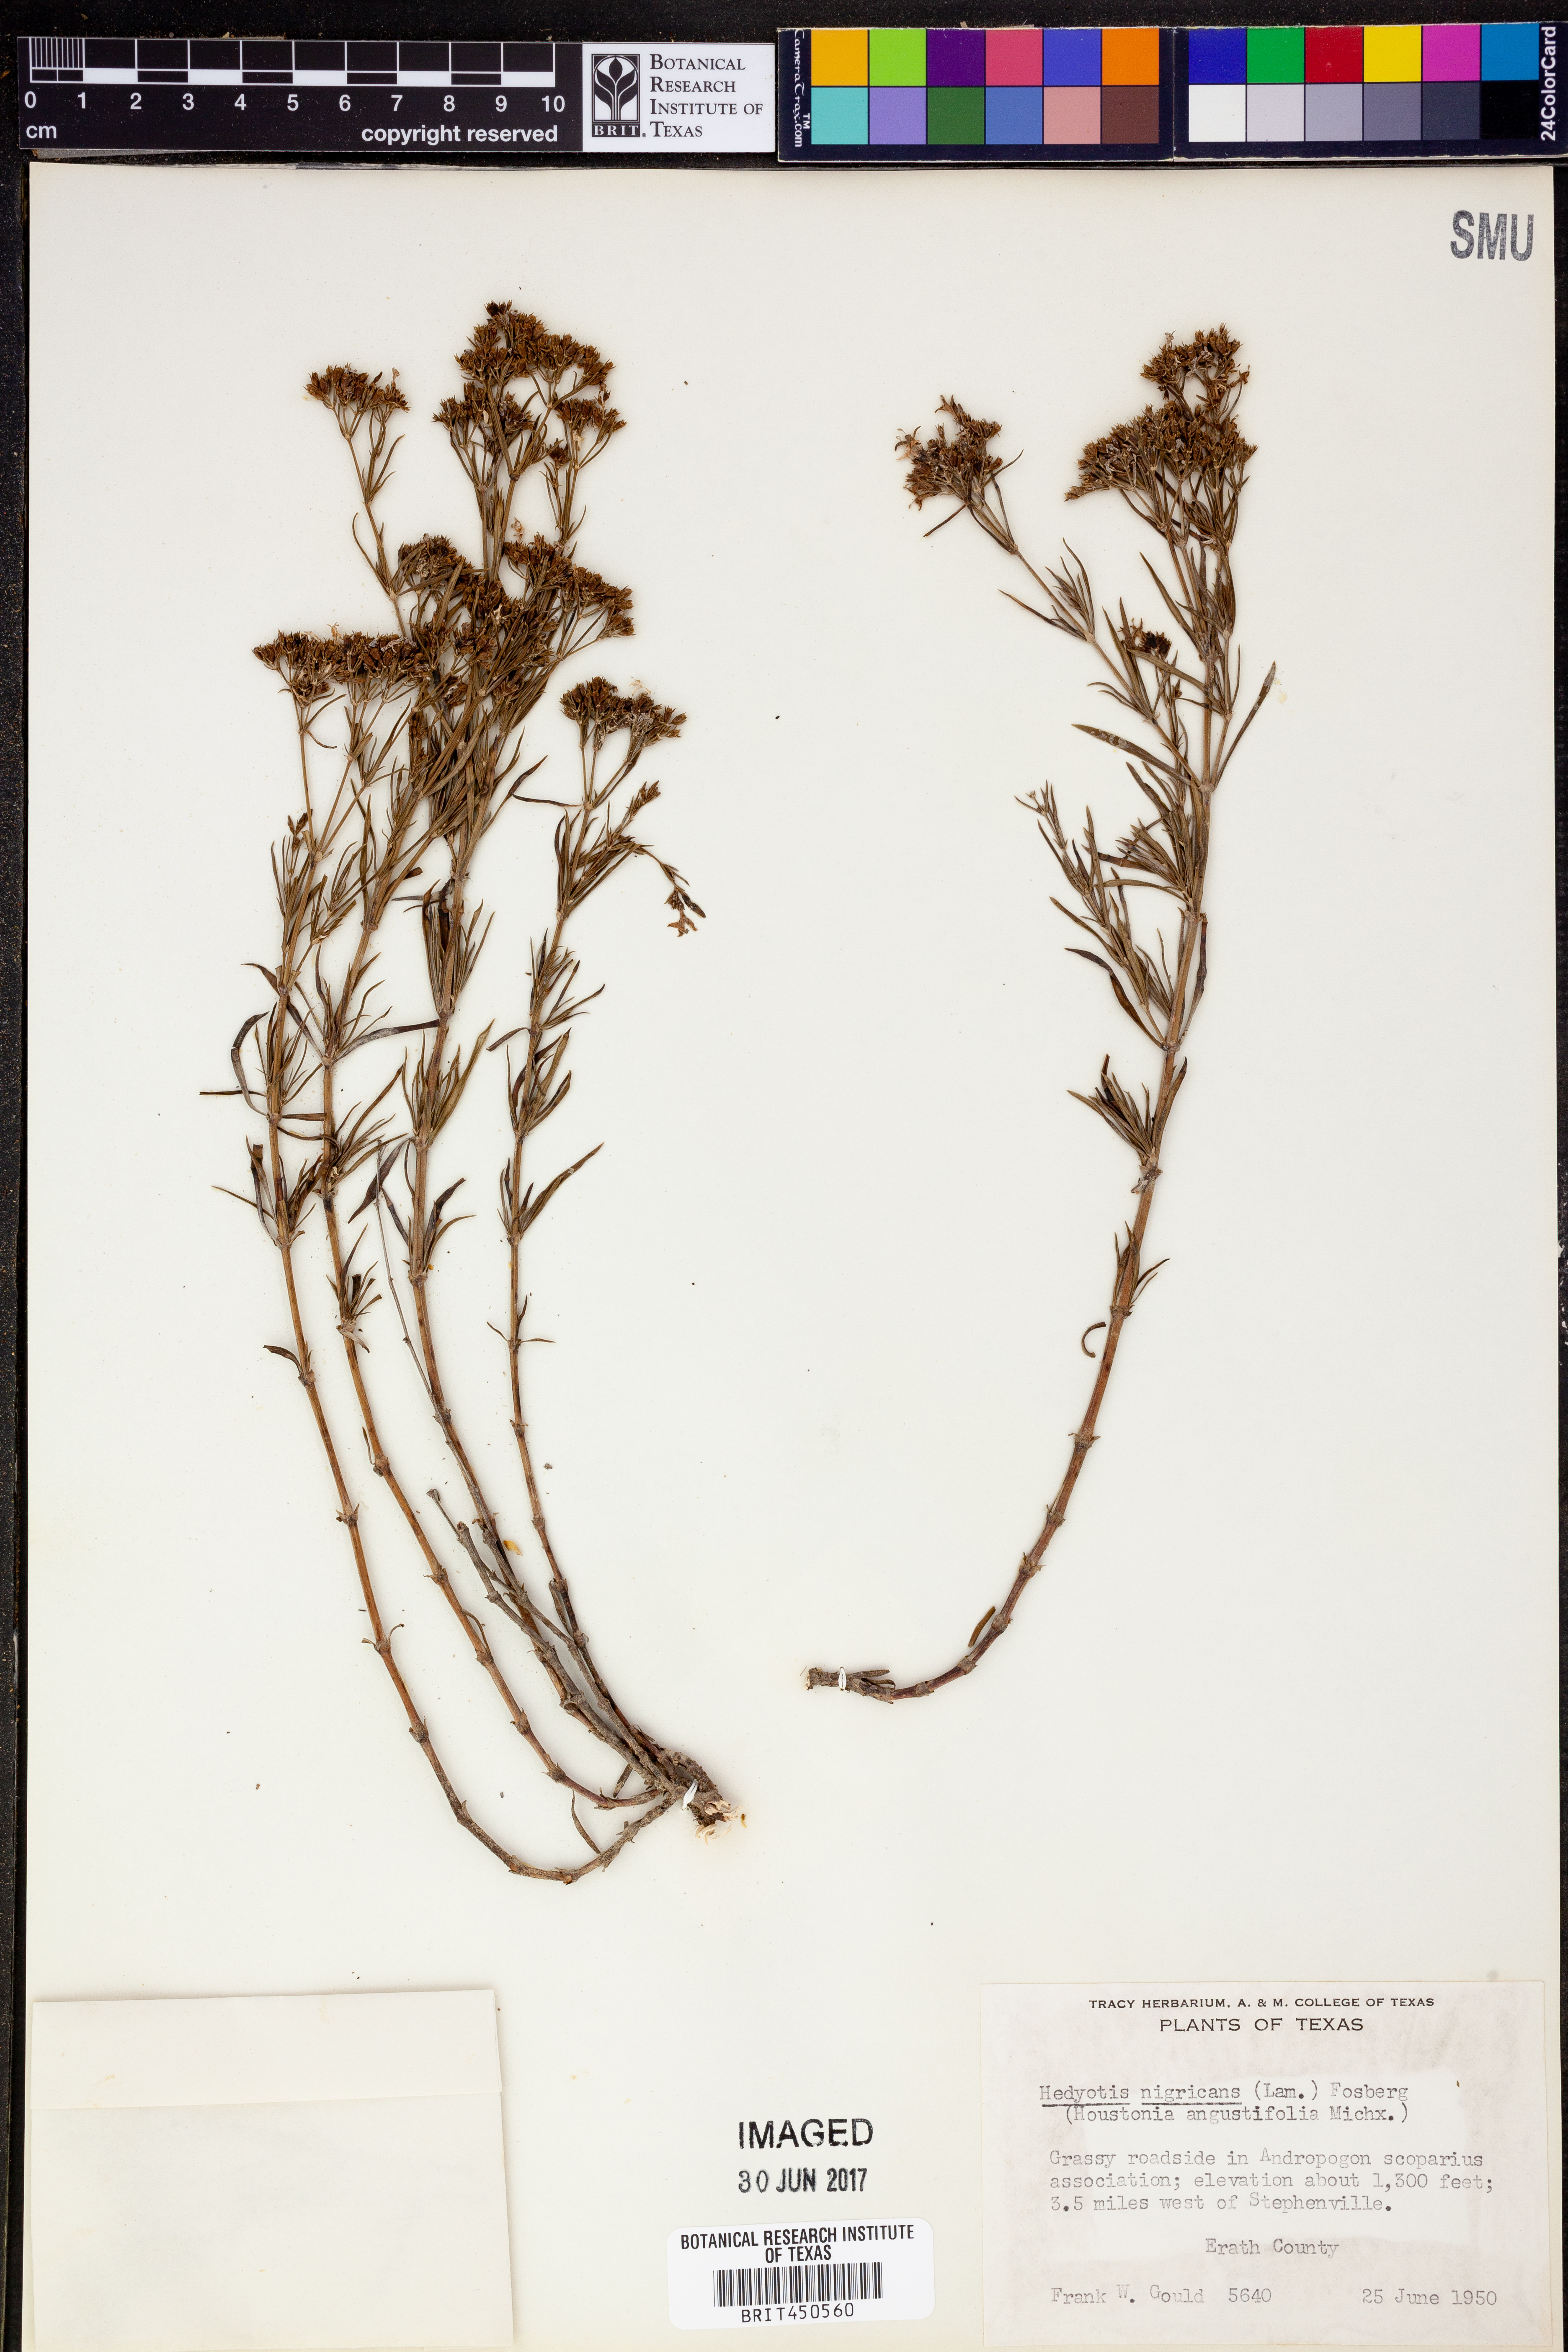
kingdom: Plantae
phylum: Tracheophyta
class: Magnoliopsida
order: Gentianales
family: Rubiaceae
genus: Stenaria
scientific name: Stenaria nigricans
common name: Diamondflowers
